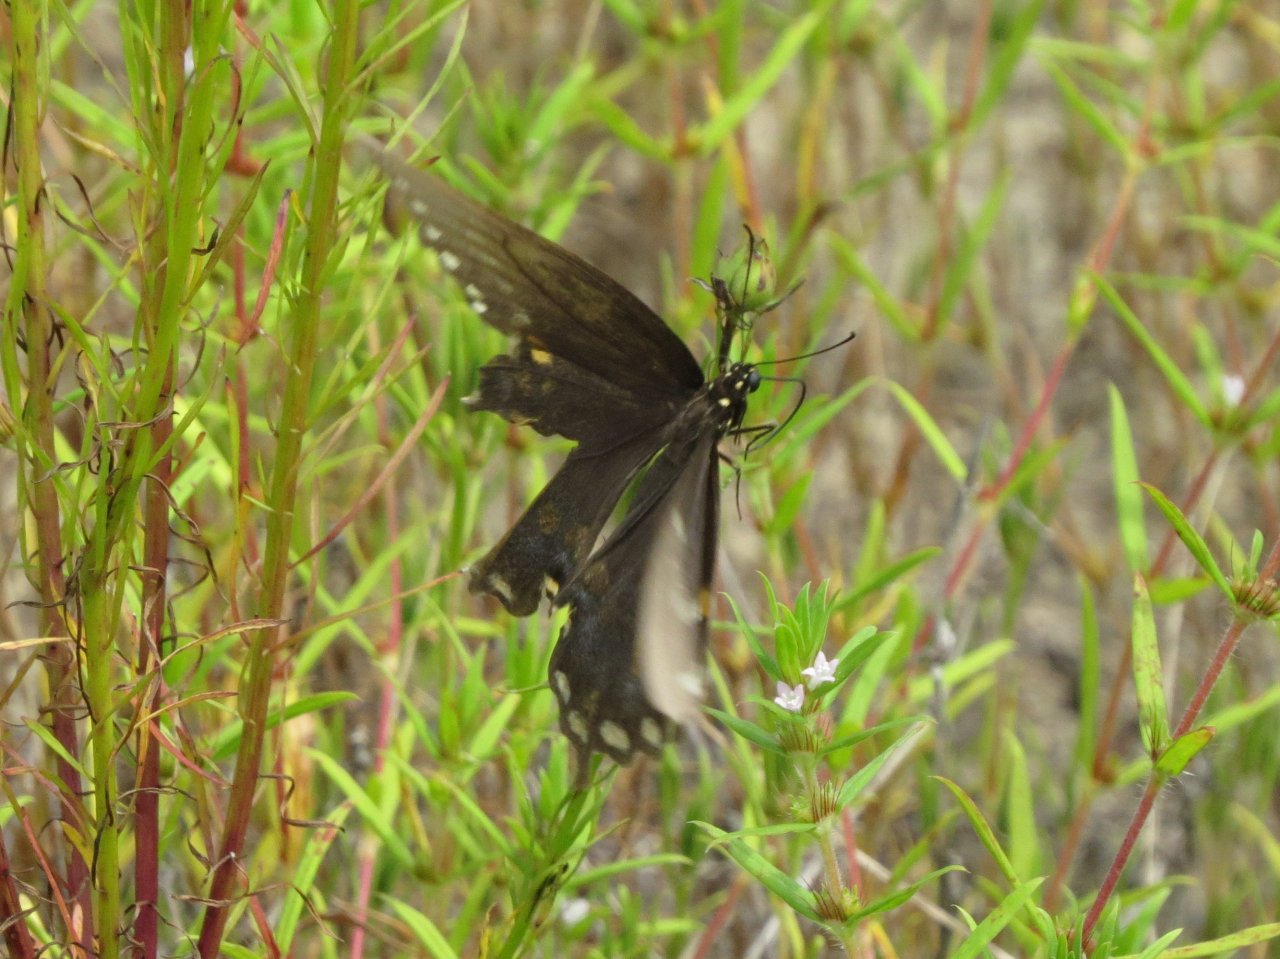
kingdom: Animalia
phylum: Arthropoda
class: Insecta
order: Lepidoptera
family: Papilionidae
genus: Pterourus
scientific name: Pterourus troilus
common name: Spicebush Swallowtail
